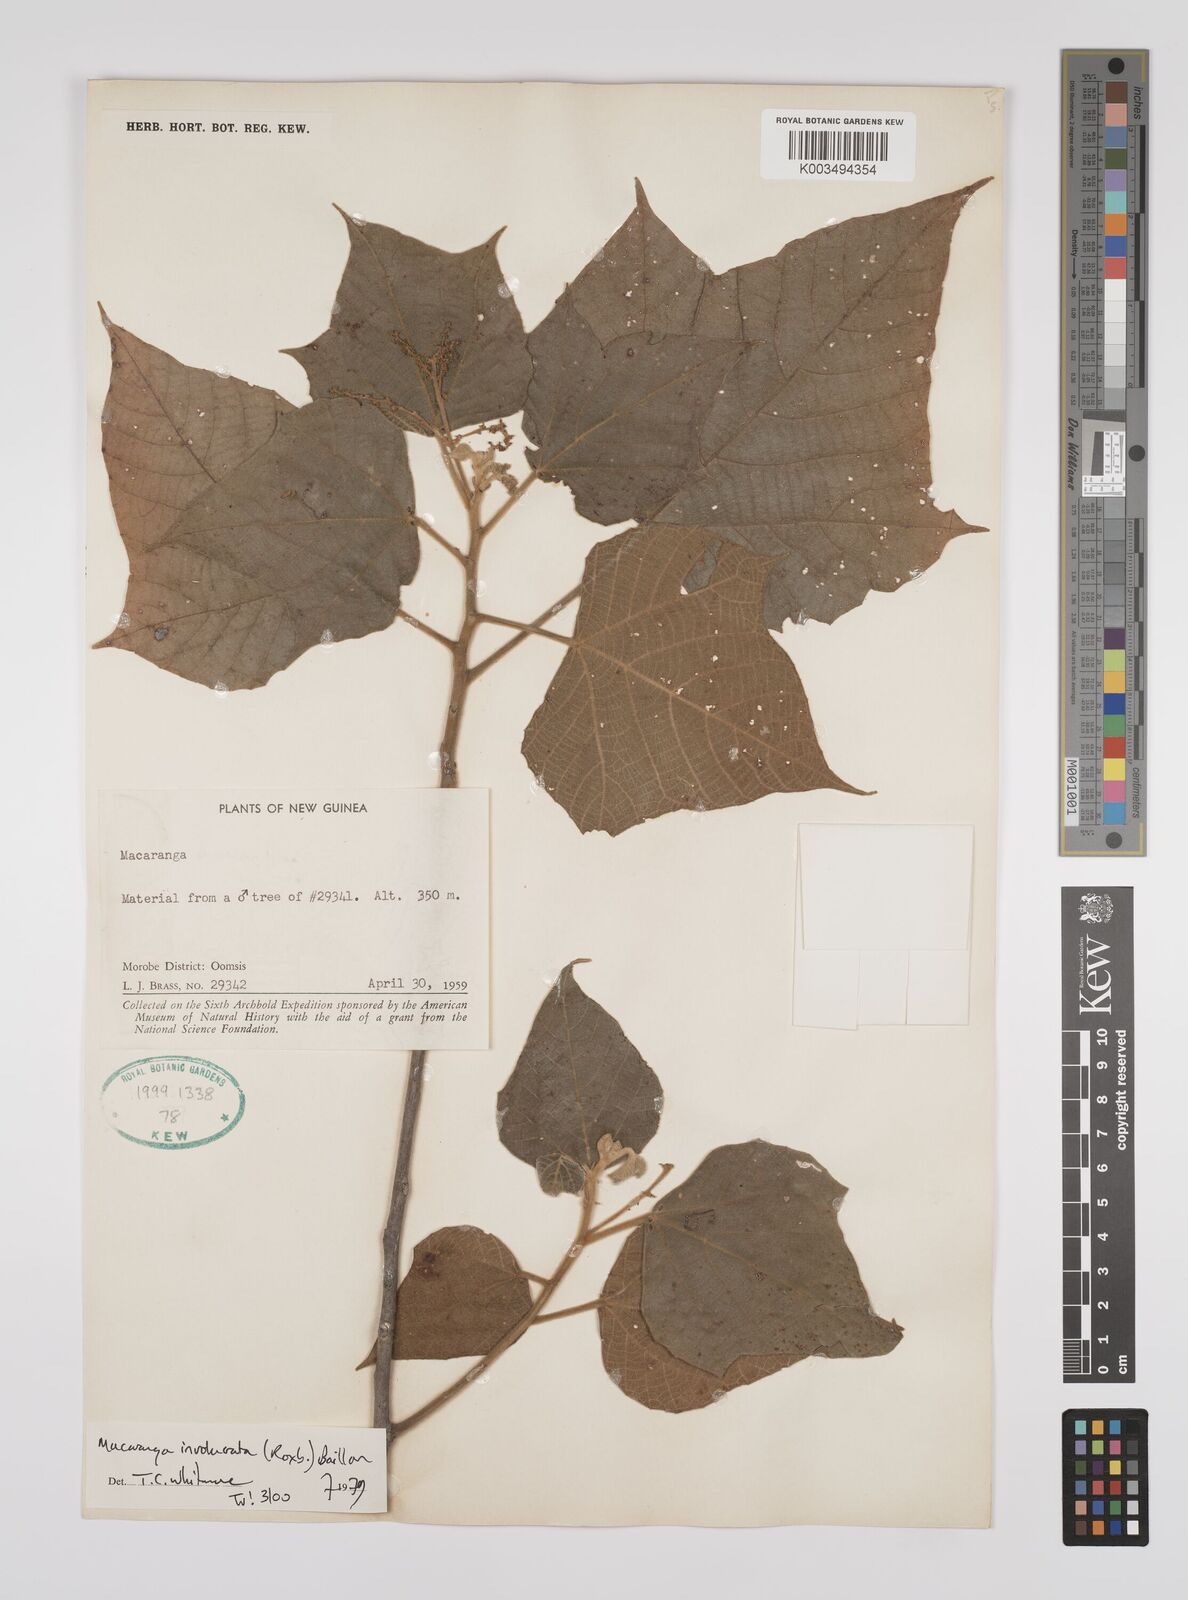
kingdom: Plantae
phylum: Tracheophyta
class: Magnoliopsida
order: Malpighiales
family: Euphorbiaceae
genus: Macaranga
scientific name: Macaranga involucrata
